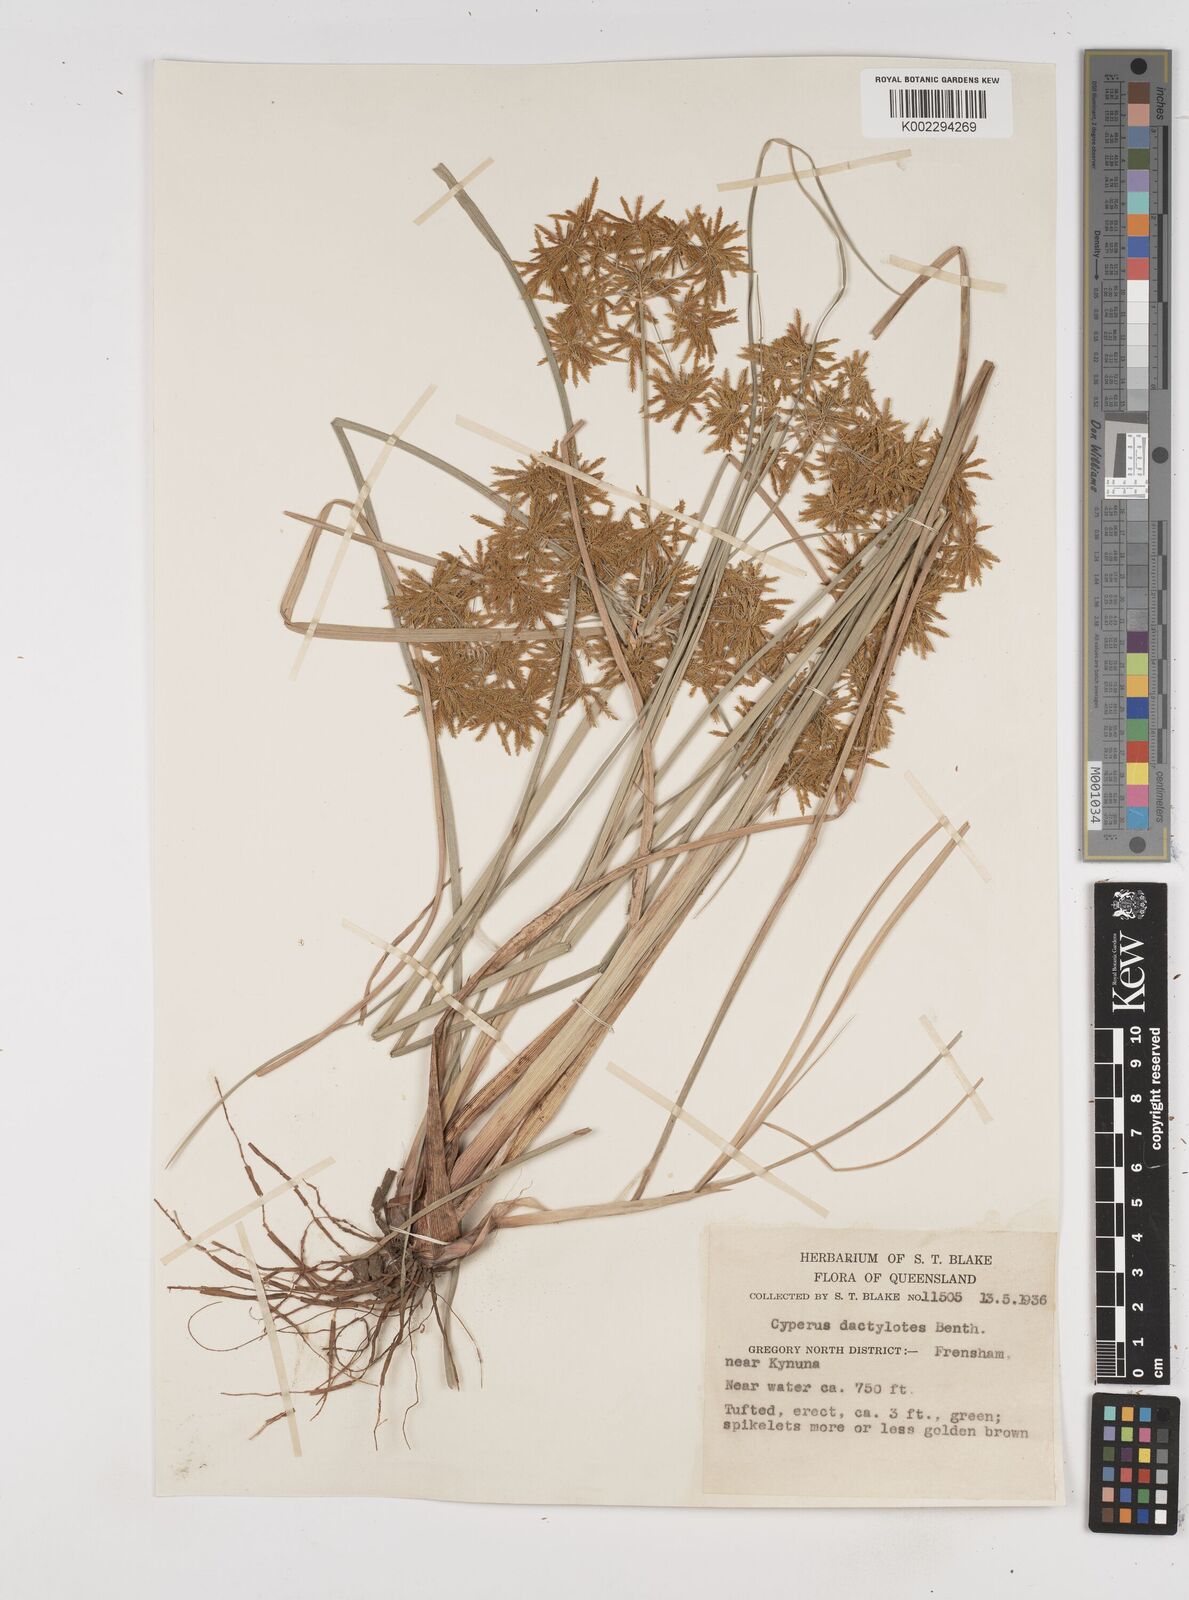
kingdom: Plantae
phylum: Tracheophyta
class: Liliopsida
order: Poales
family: Cyperaceae
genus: Cyperus
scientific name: Cyperus dactylotes
